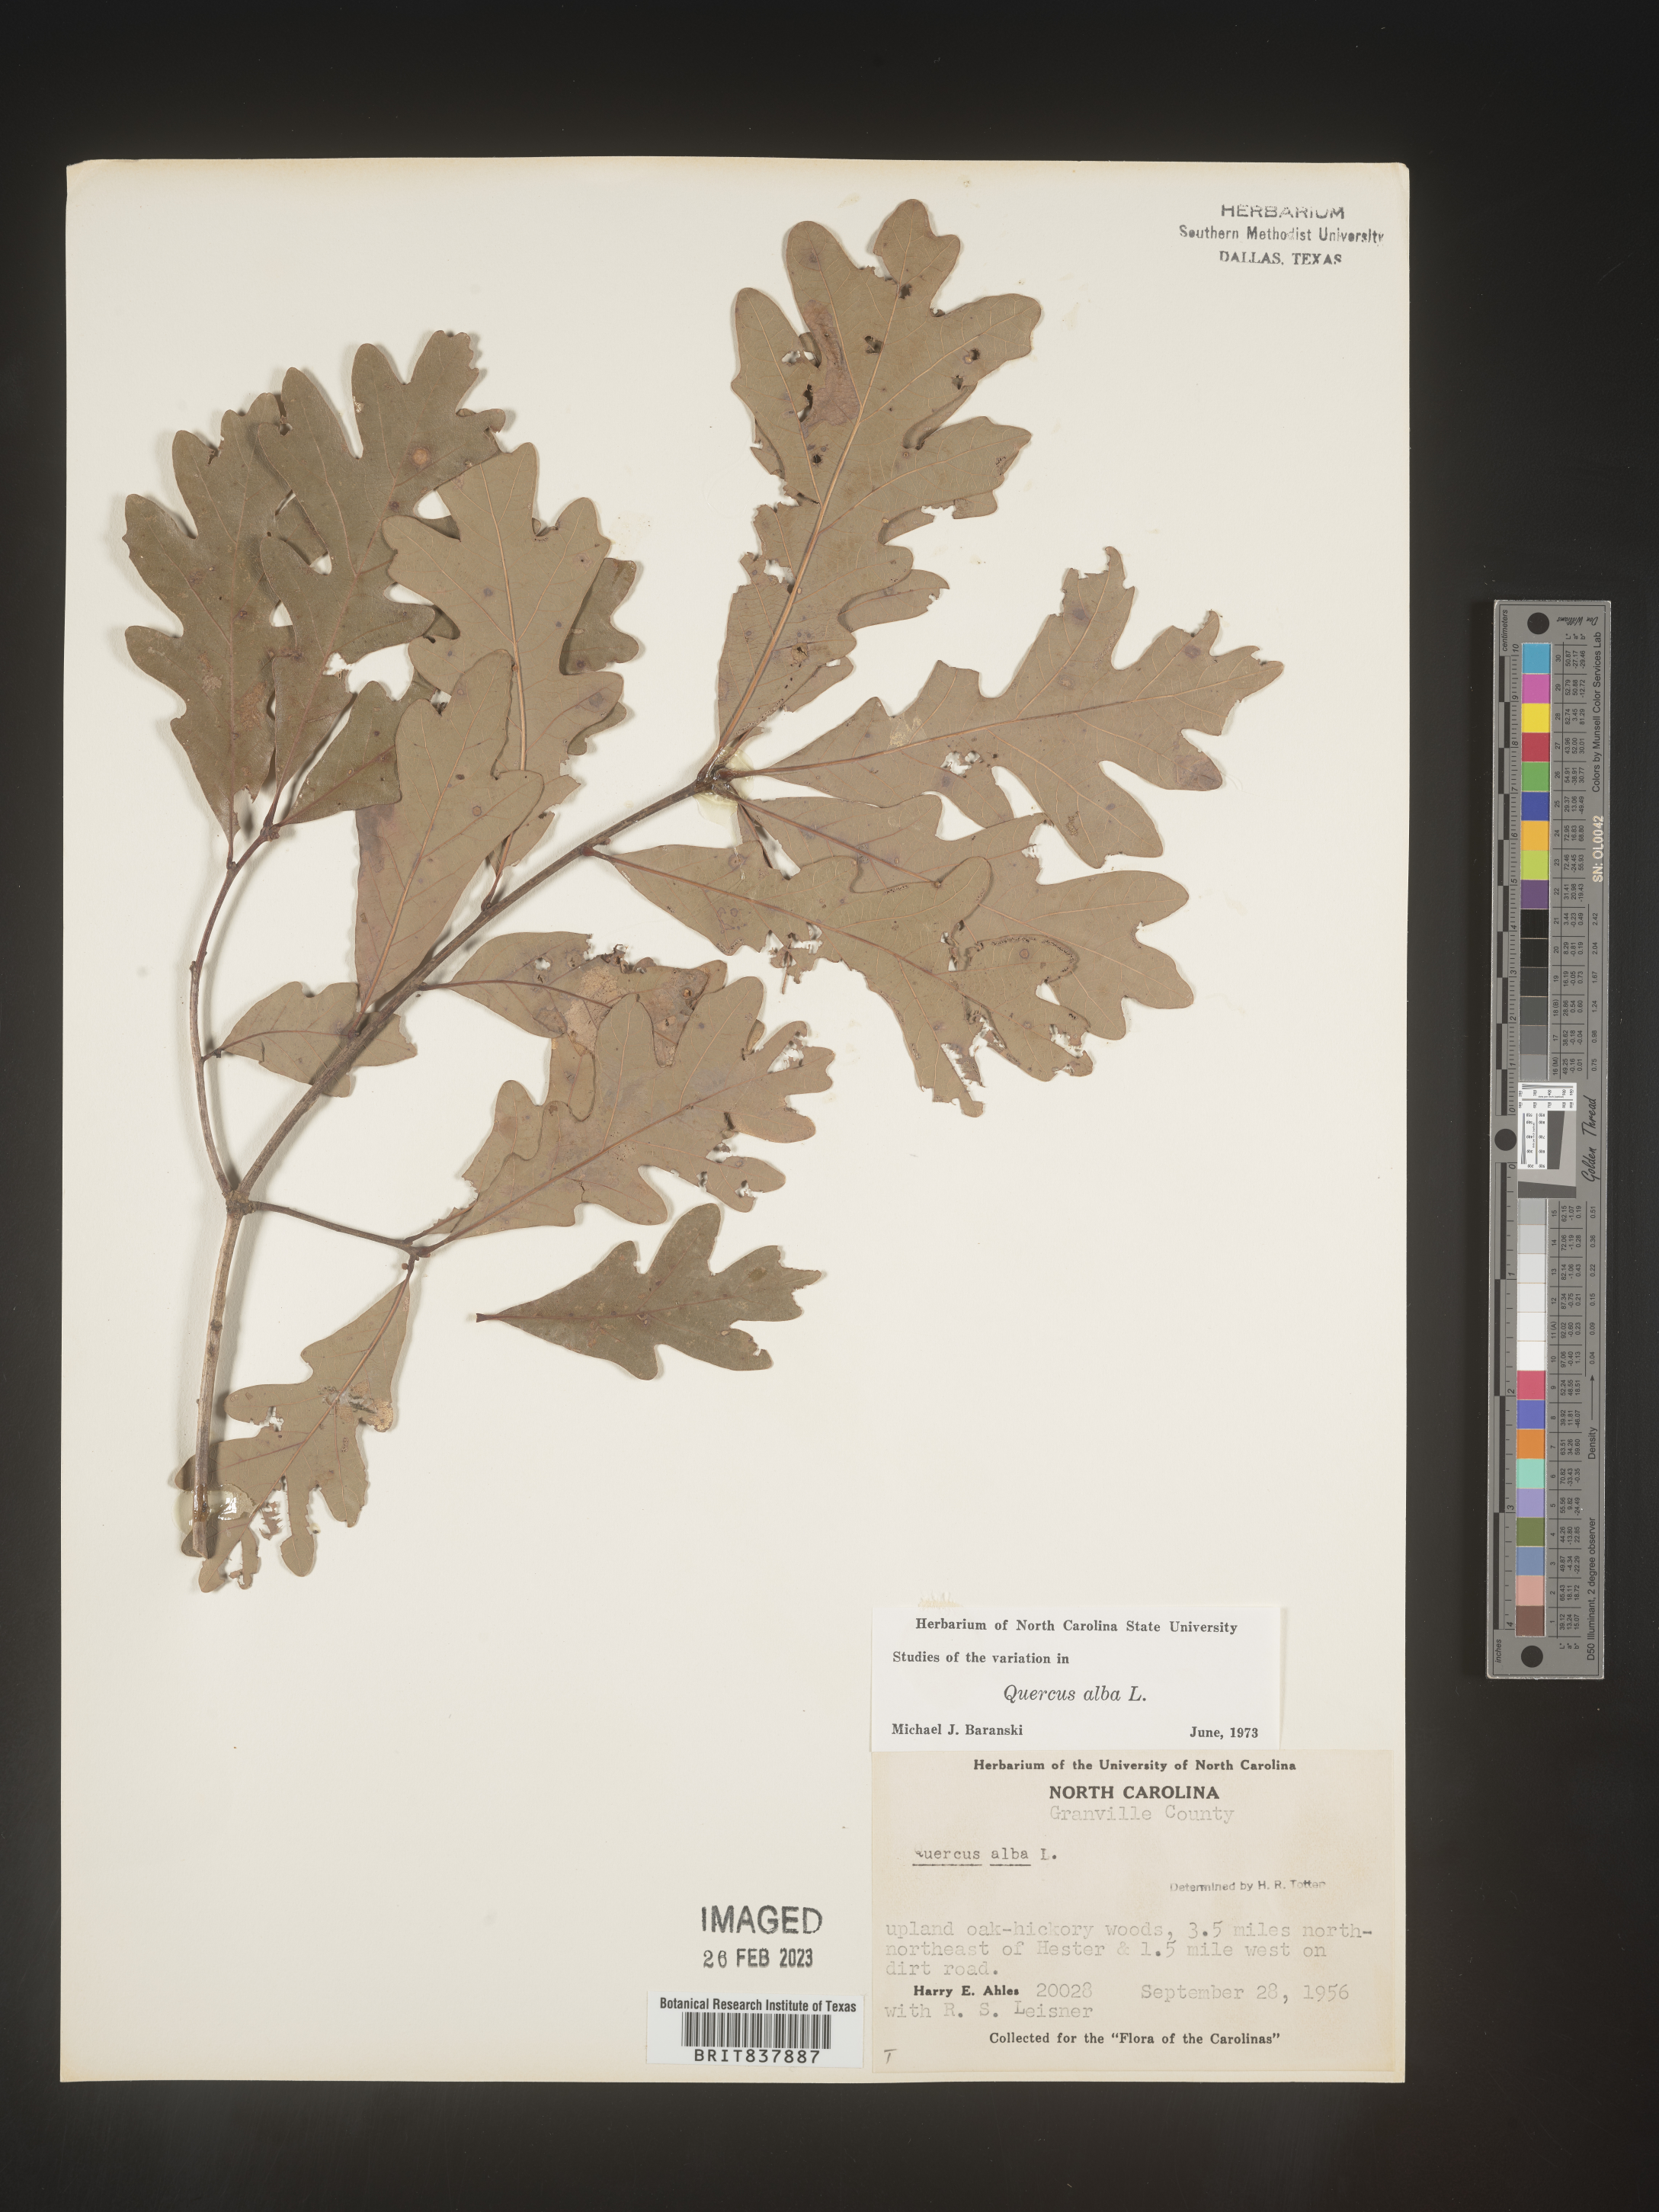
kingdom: Plantae
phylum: Tracheophyta
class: Magnoliopsida
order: Fagales
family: Fagaceae
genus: Quercus
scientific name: Quercus alba
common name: White oak
